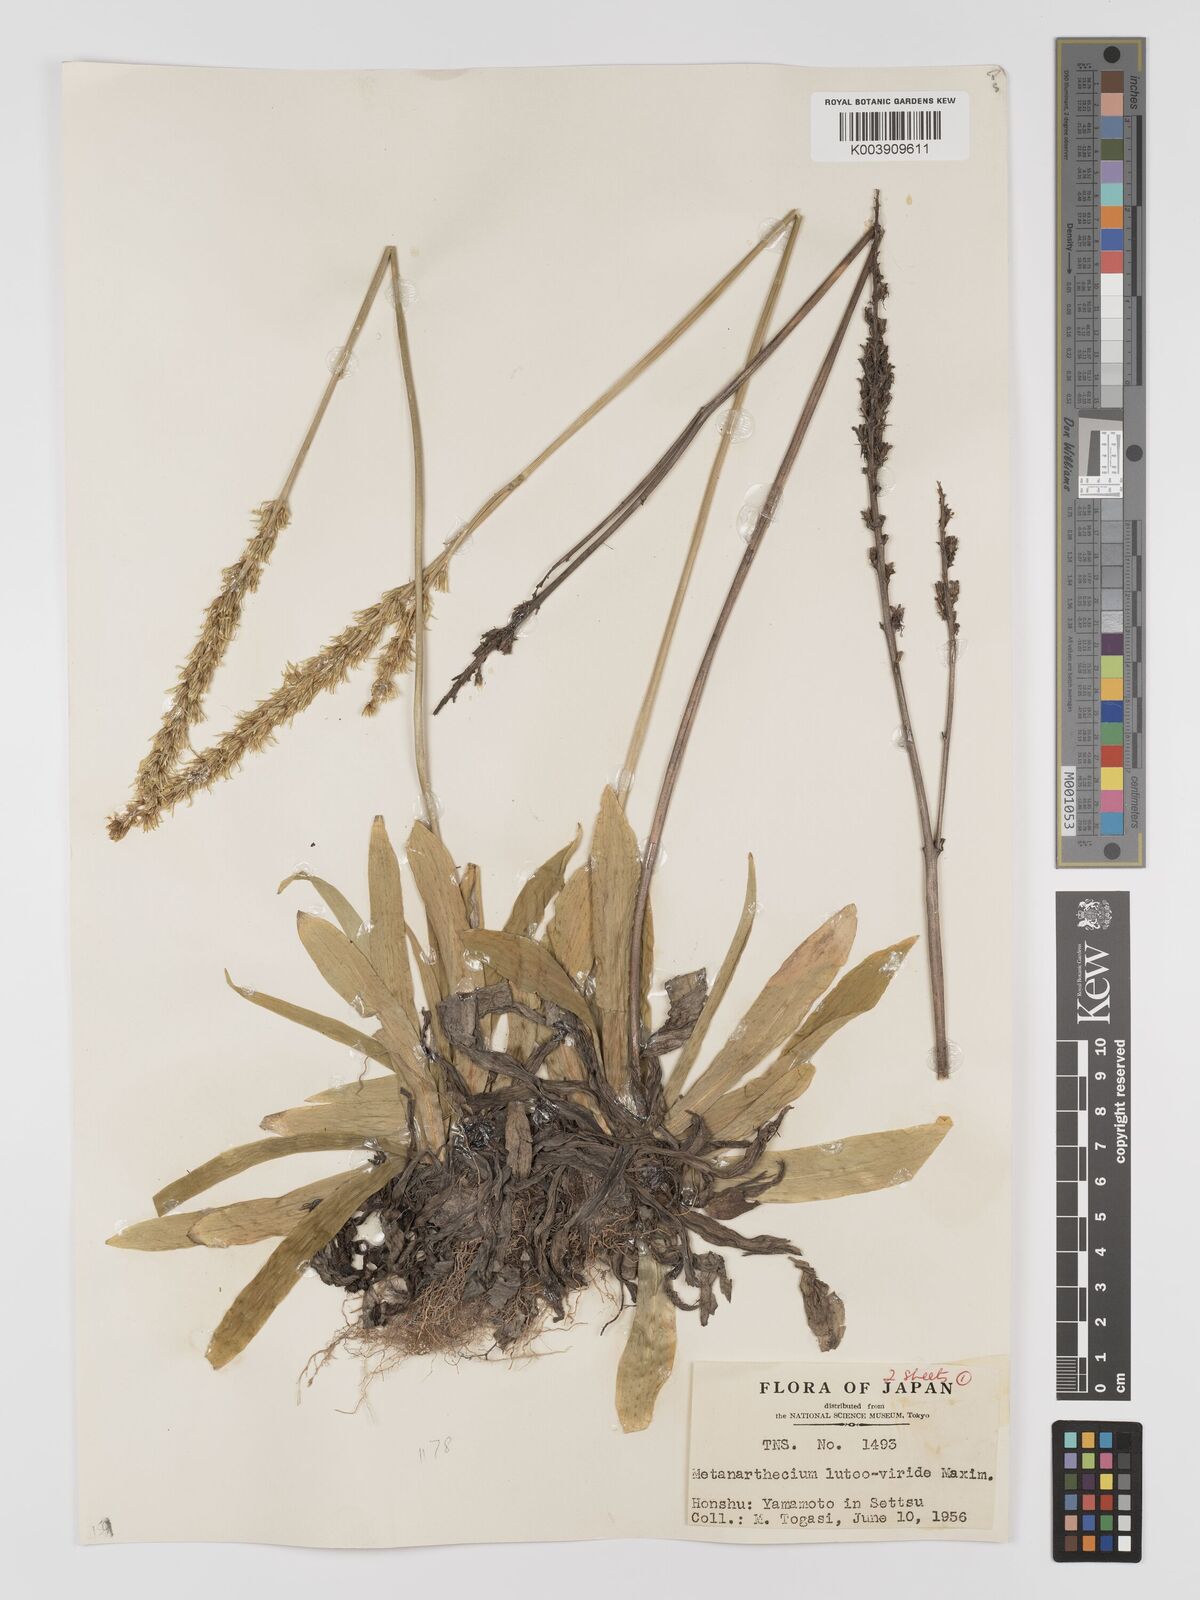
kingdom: Plantae
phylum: Tracheophyta
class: Liliopsida
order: Dioscoreales
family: Nartheciaceae
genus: Metanarthecium
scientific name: Metanarthecium luteoviride
